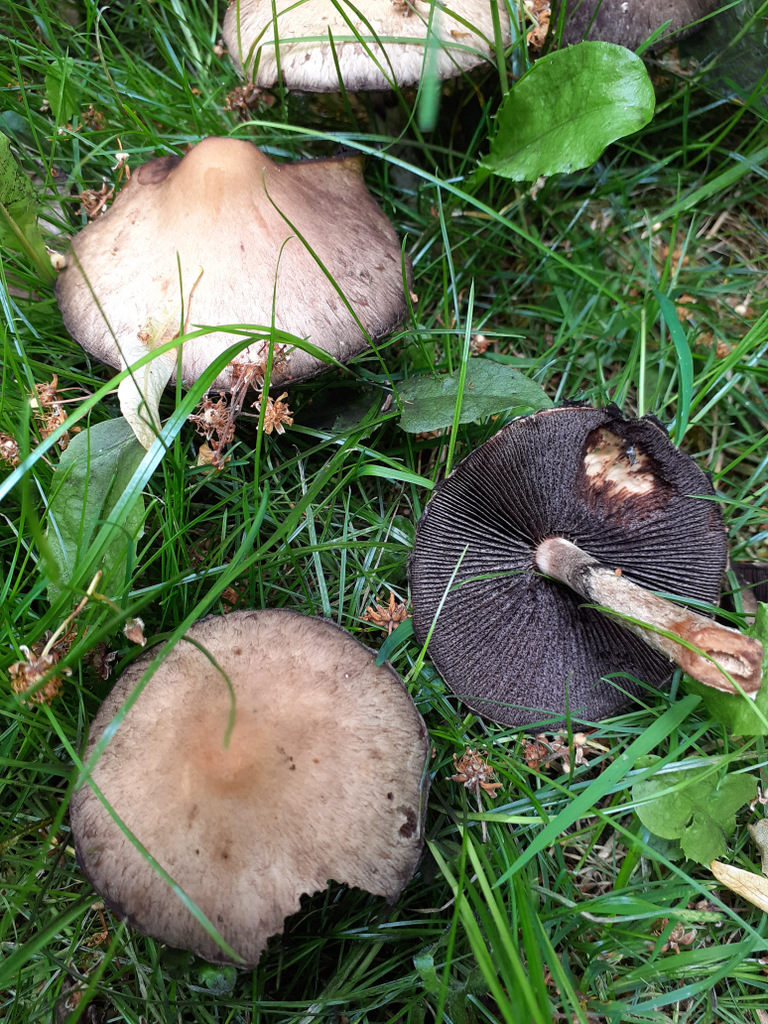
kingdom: Fungi
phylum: Basidiomycota
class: Agaricomycetes
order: Agaricales
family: Psathyrellaceae
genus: Lacrymaria
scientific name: Lacrymaria lacrymabunda
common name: grædende mørkhat
